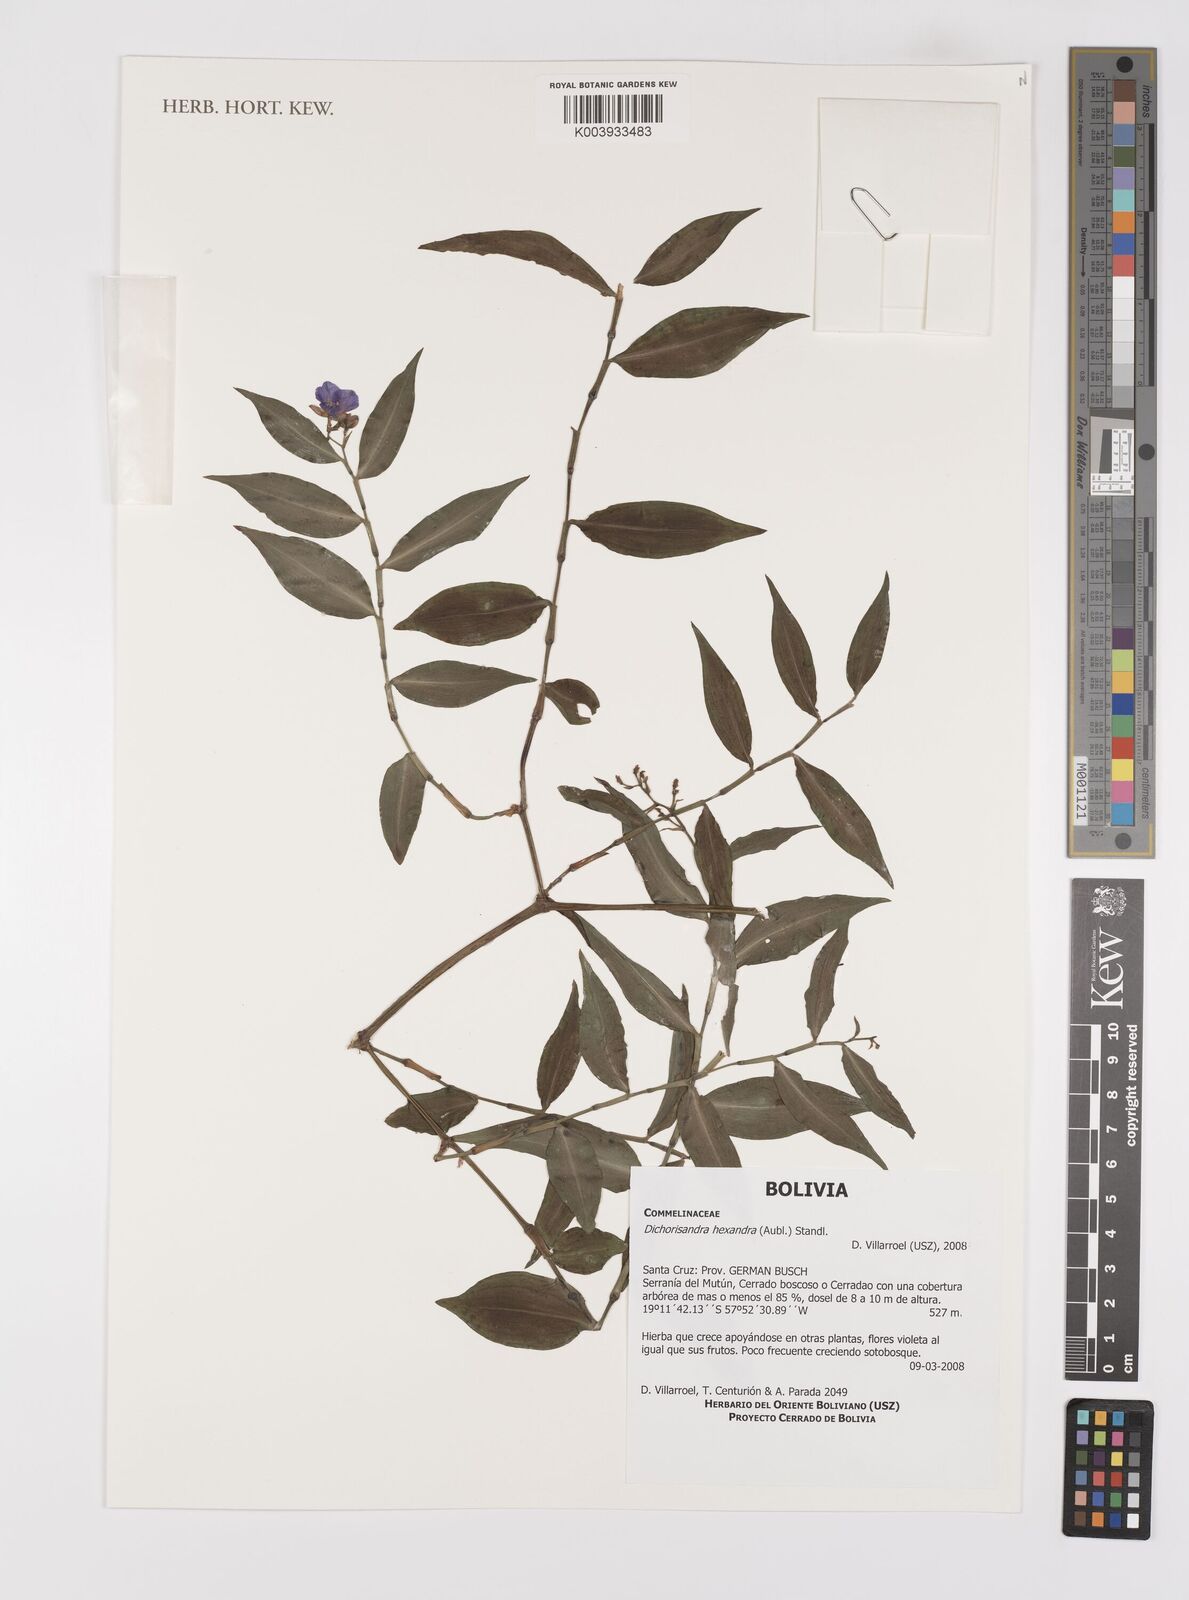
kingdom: Plantae
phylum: Tracheophyta
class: Liliopsida
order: Commelinales
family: Commelinaceae
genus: Dichorisandra
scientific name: Dichorisandra hexandra
